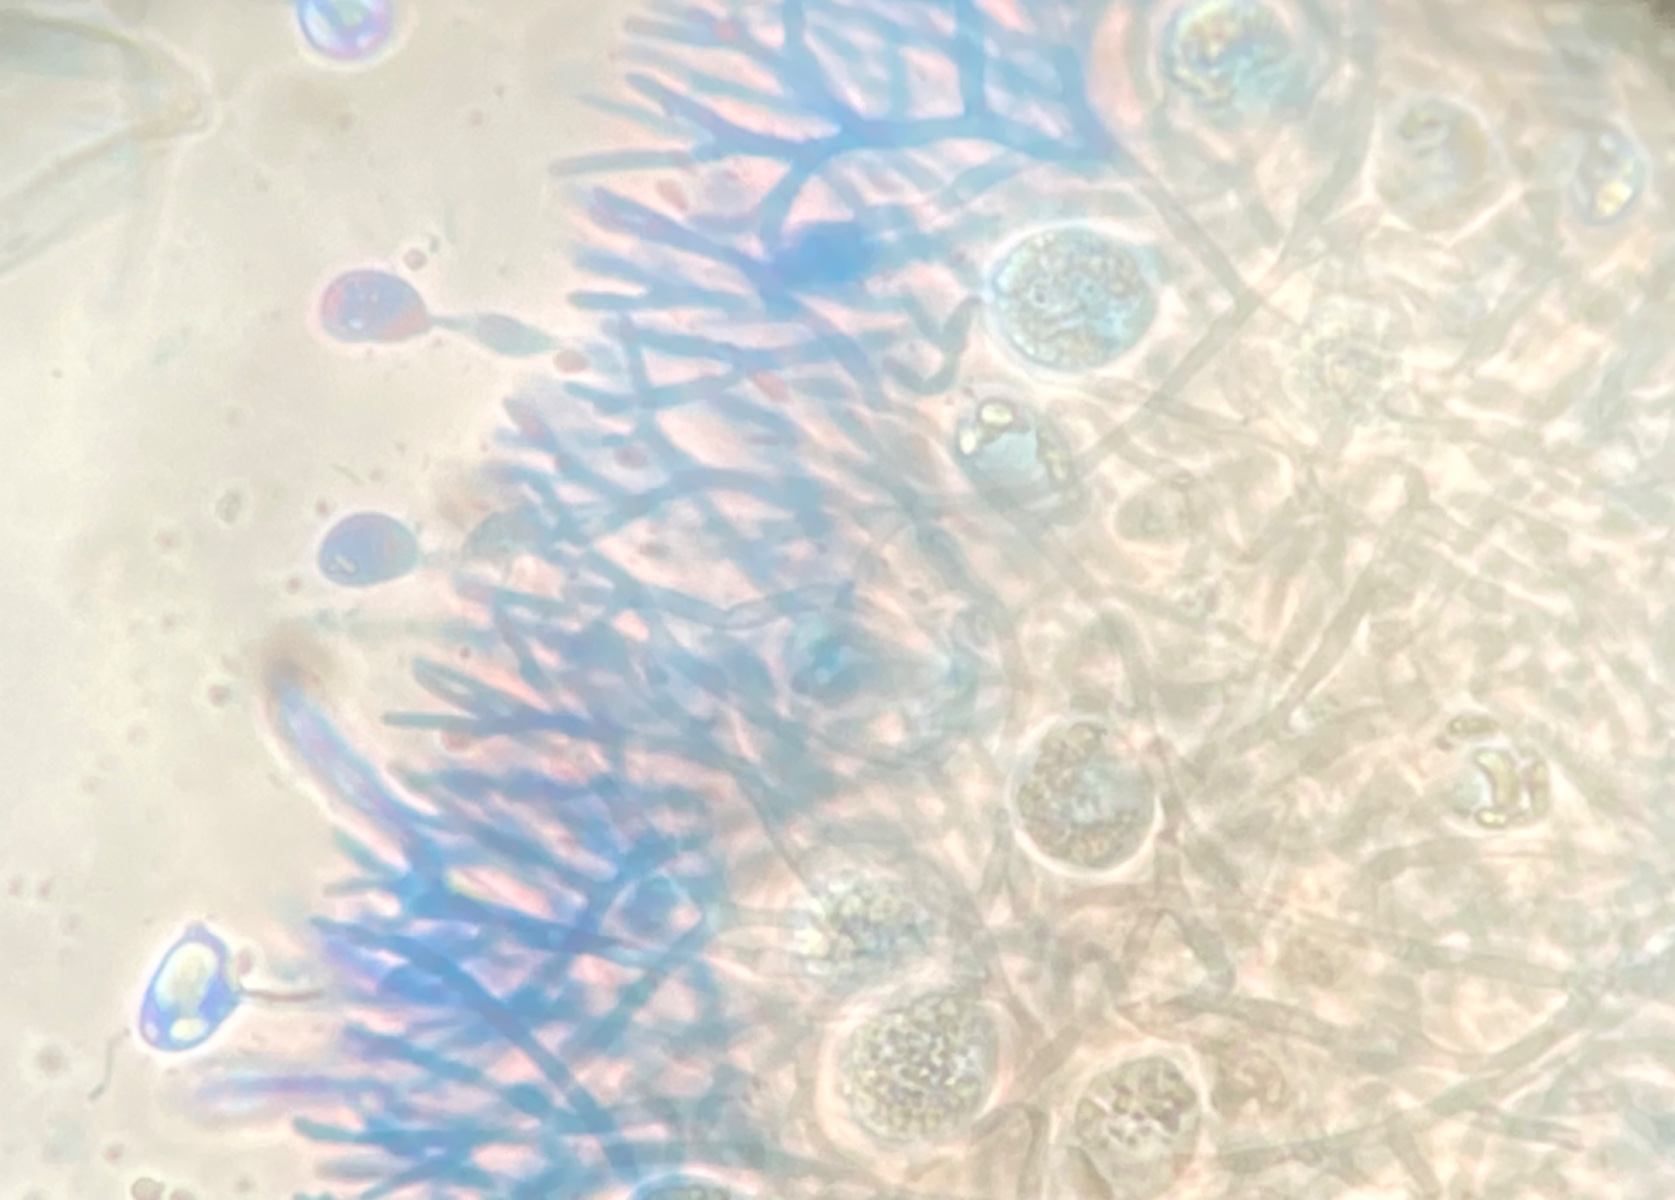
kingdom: Fungi
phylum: Basidiomycota
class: Agaricomycetes
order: Auriculariales
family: Hyaloriaceae
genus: Myxarium
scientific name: Myxarium
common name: bævretop
